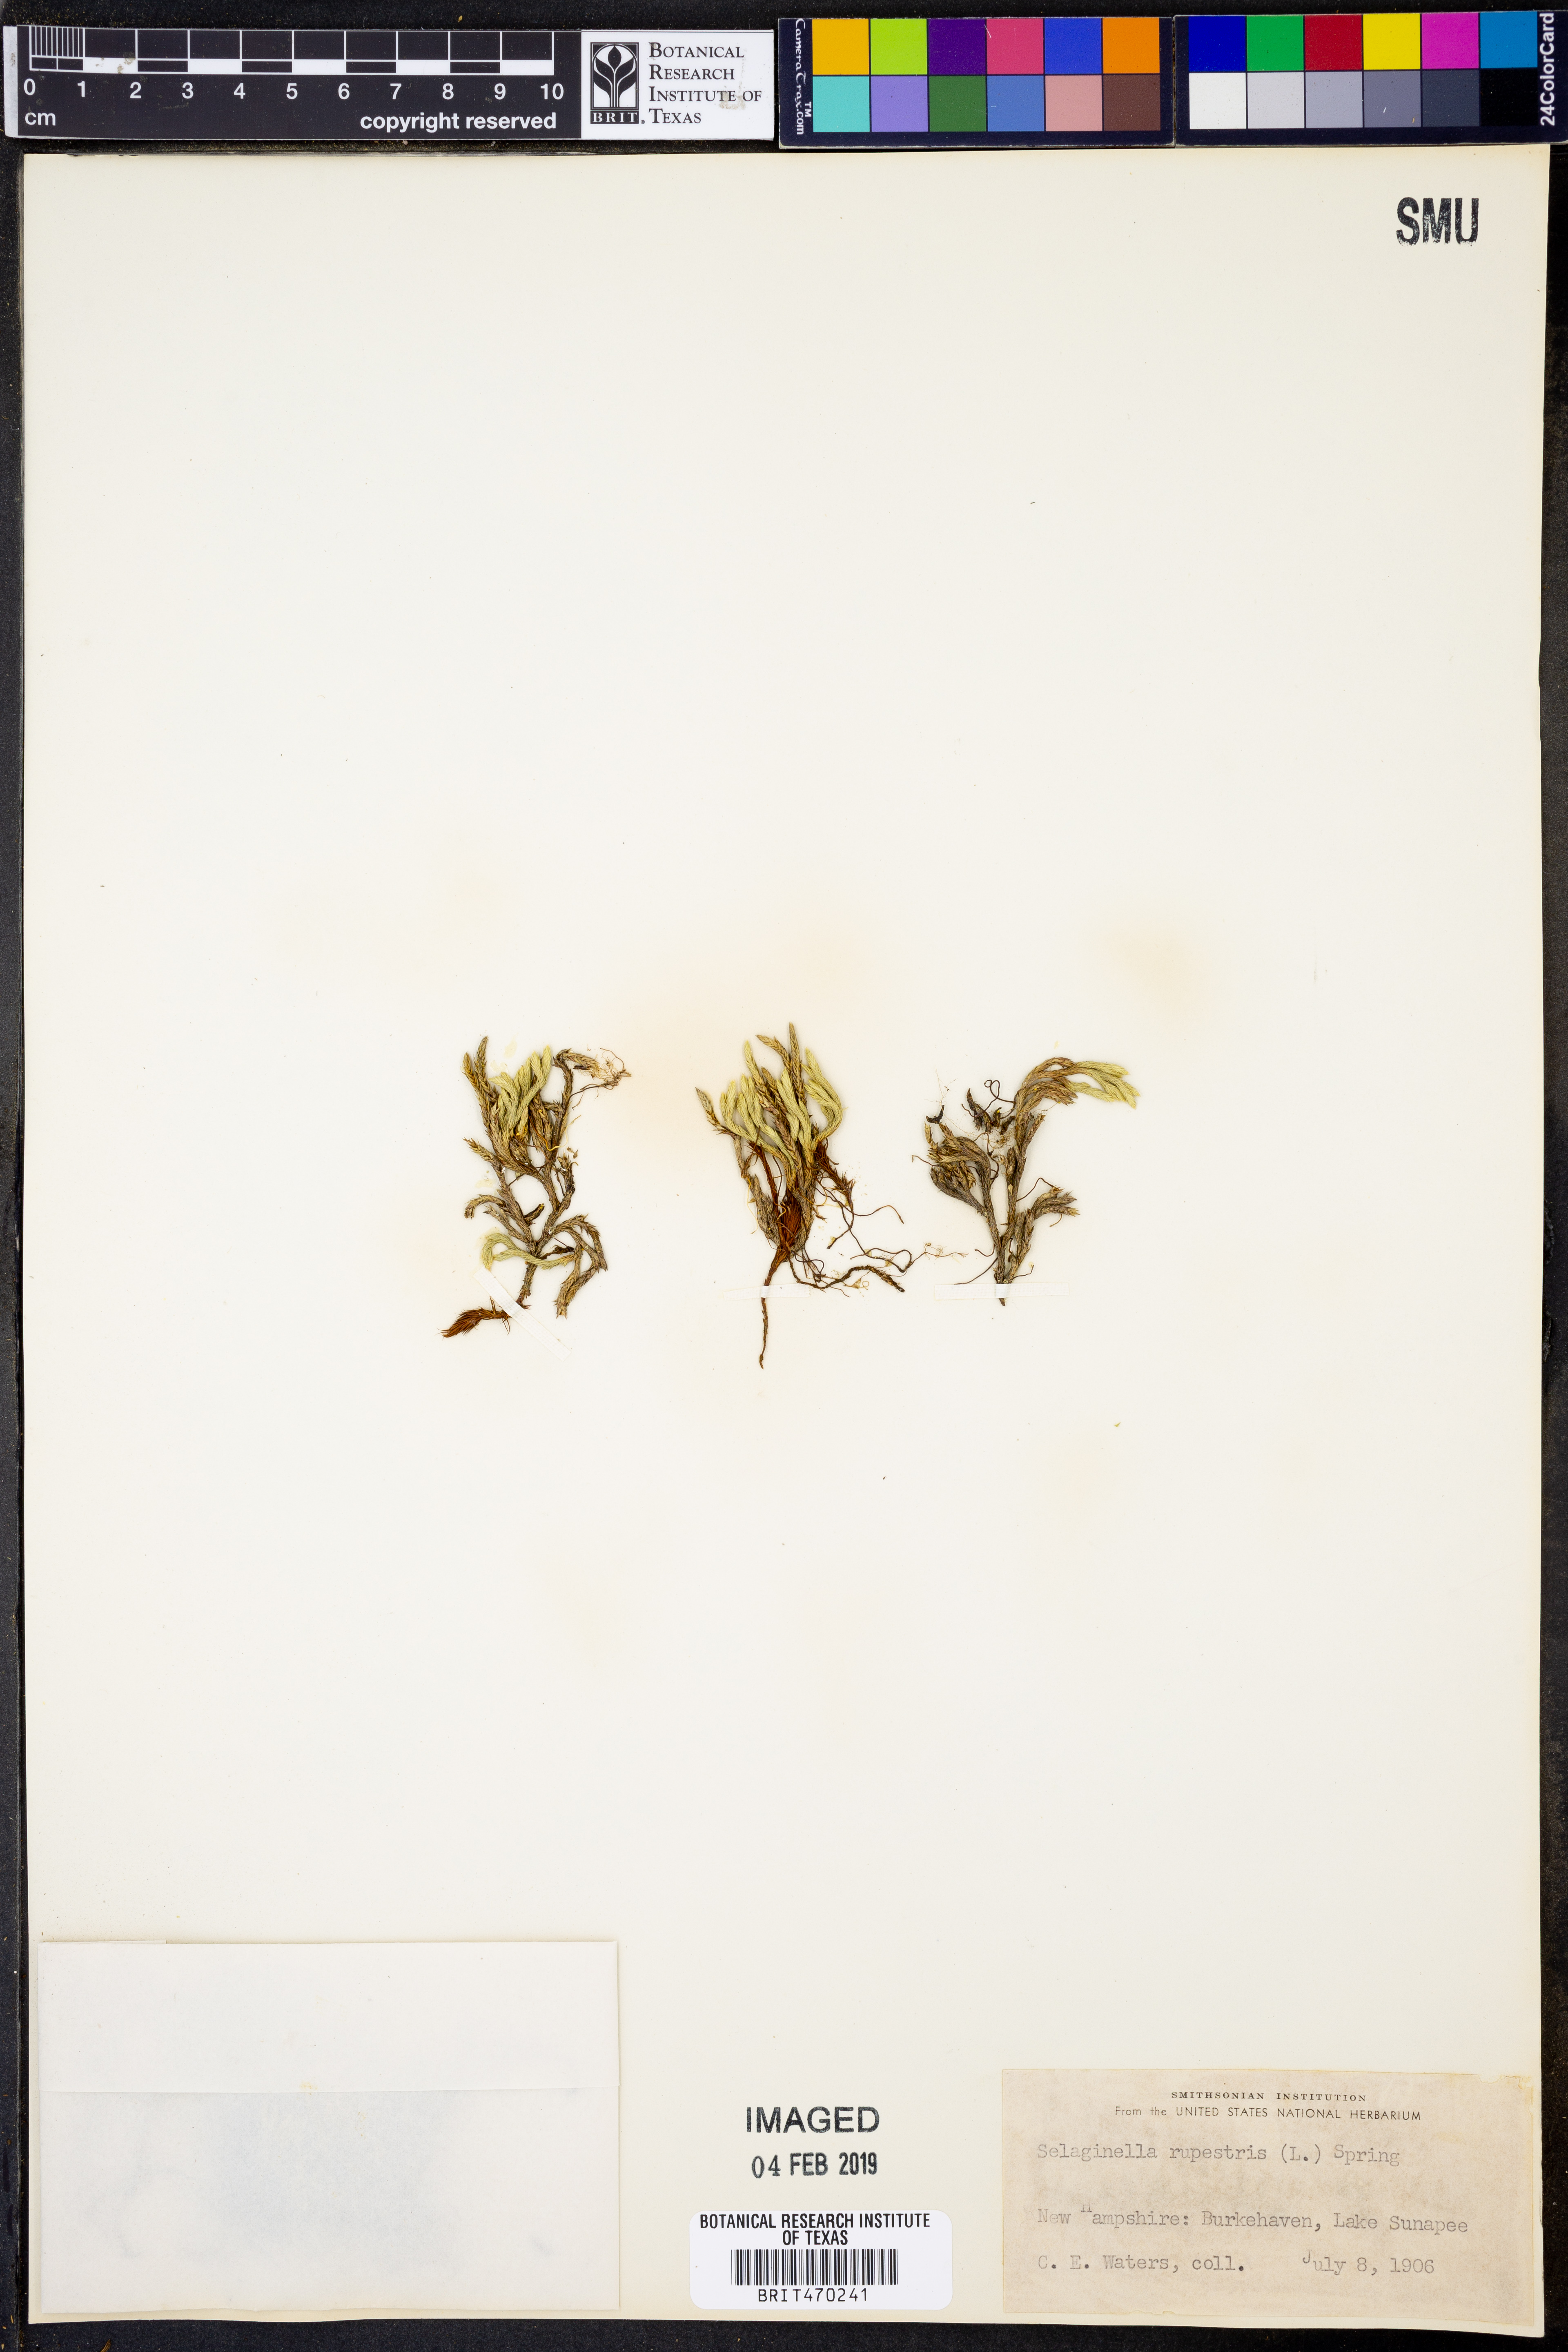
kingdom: Plantae
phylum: Tracheophyta
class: Lycopodiopsida
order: Selaginellales
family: Selaginellaceae
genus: Selaginella
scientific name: Selaginella rupestris
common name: Dwarf spikemoss
